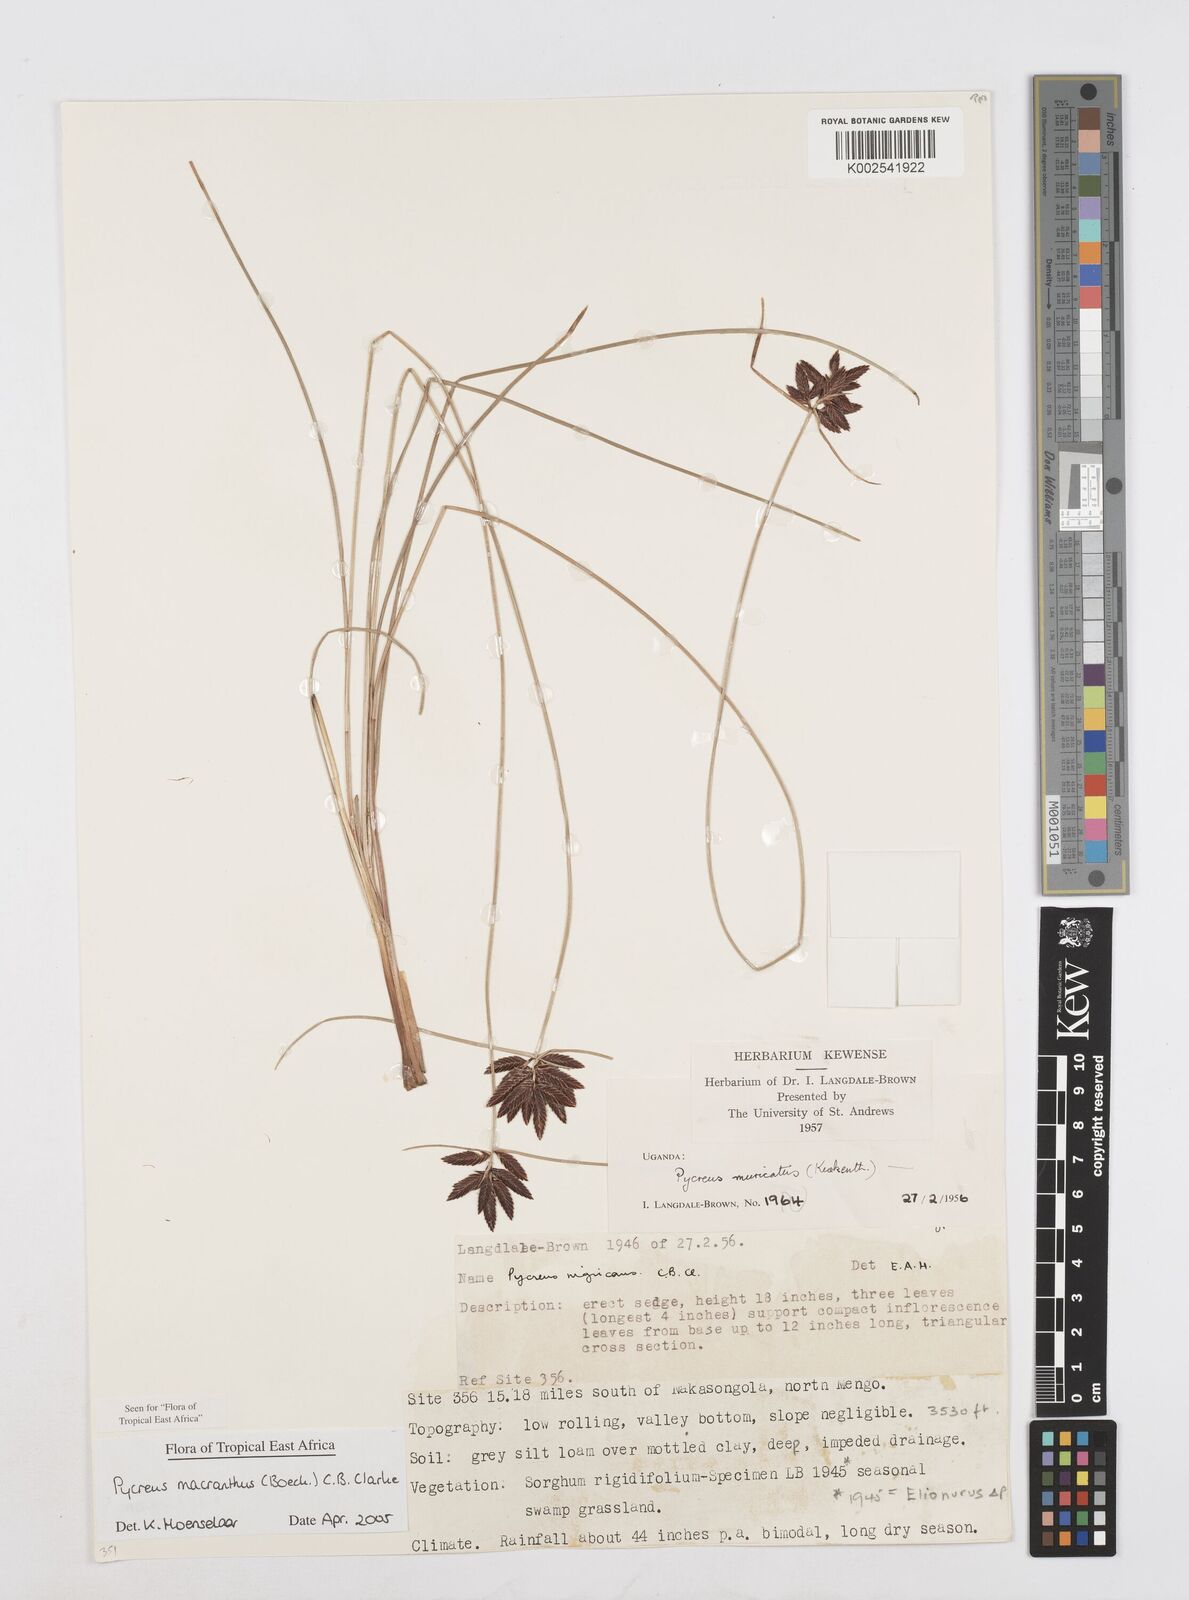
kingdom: Plantae
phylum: Tracheophyta
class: Liliopsida
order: Poales
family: Cyperaceae
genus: Cyperus
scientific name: Cyperus nigricans
